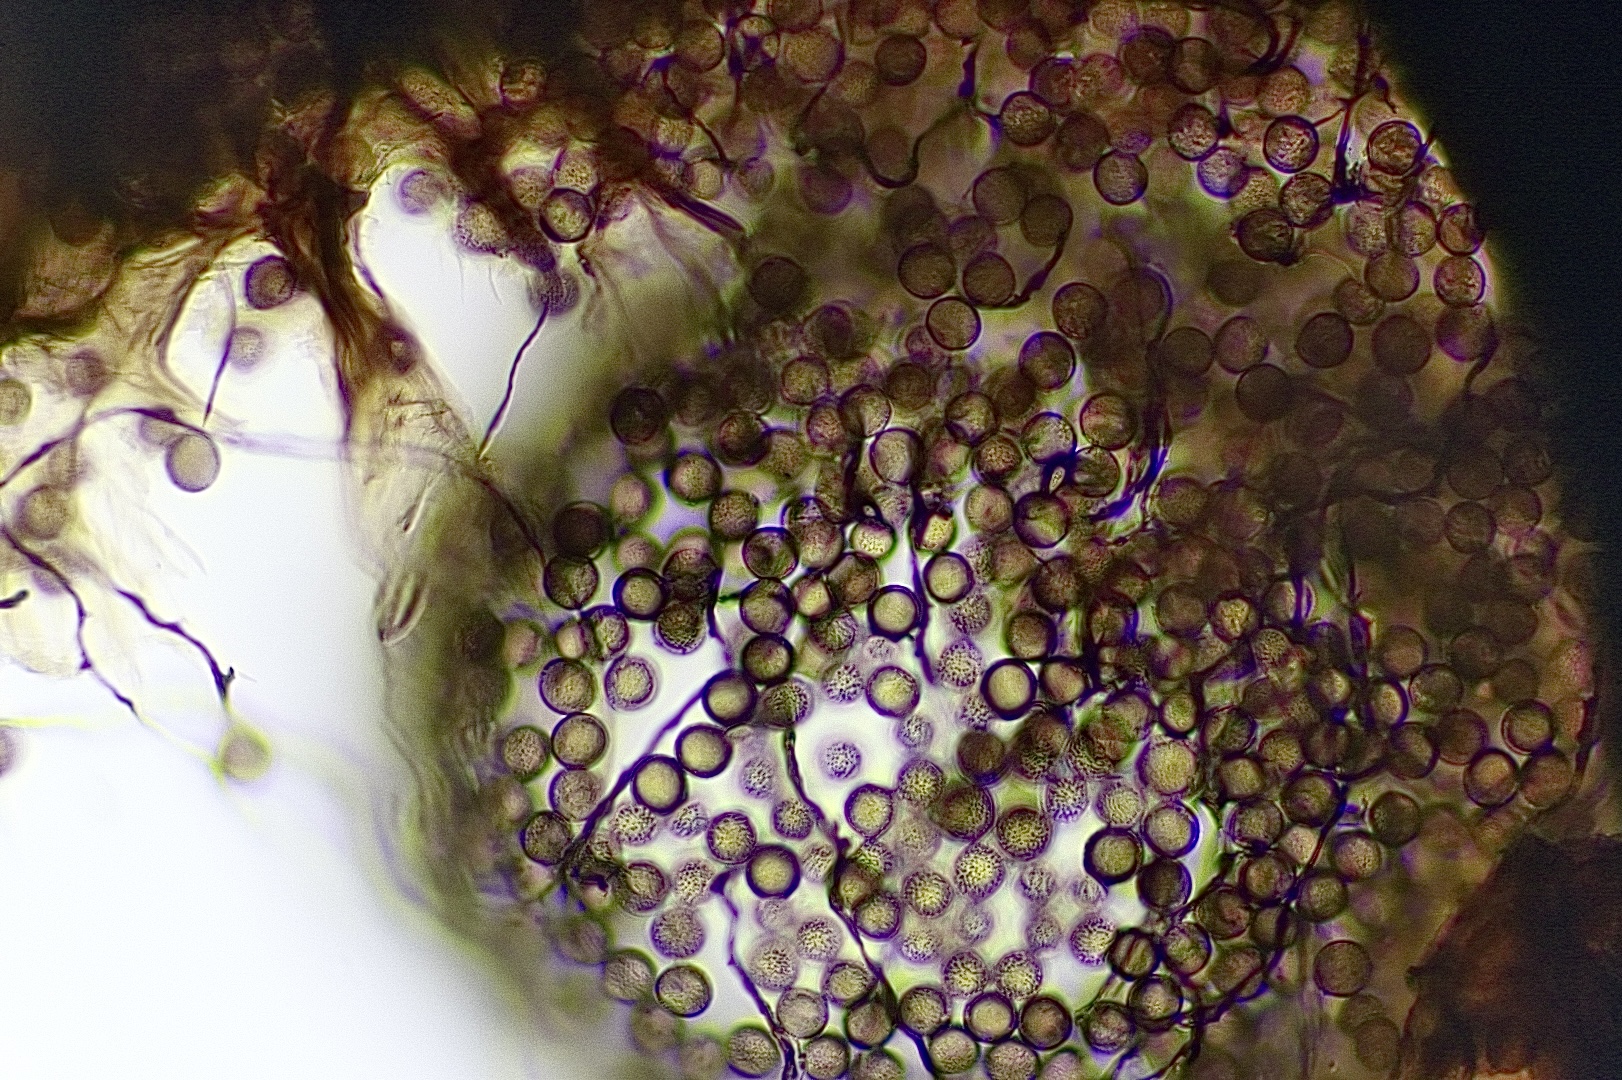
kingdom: Protozoa
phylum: Mycetozoa
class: Myxomycetes
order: Stemonitidales
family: Stemonitidaceae
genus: Enerthenema
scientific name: Enerthenema papillatum
